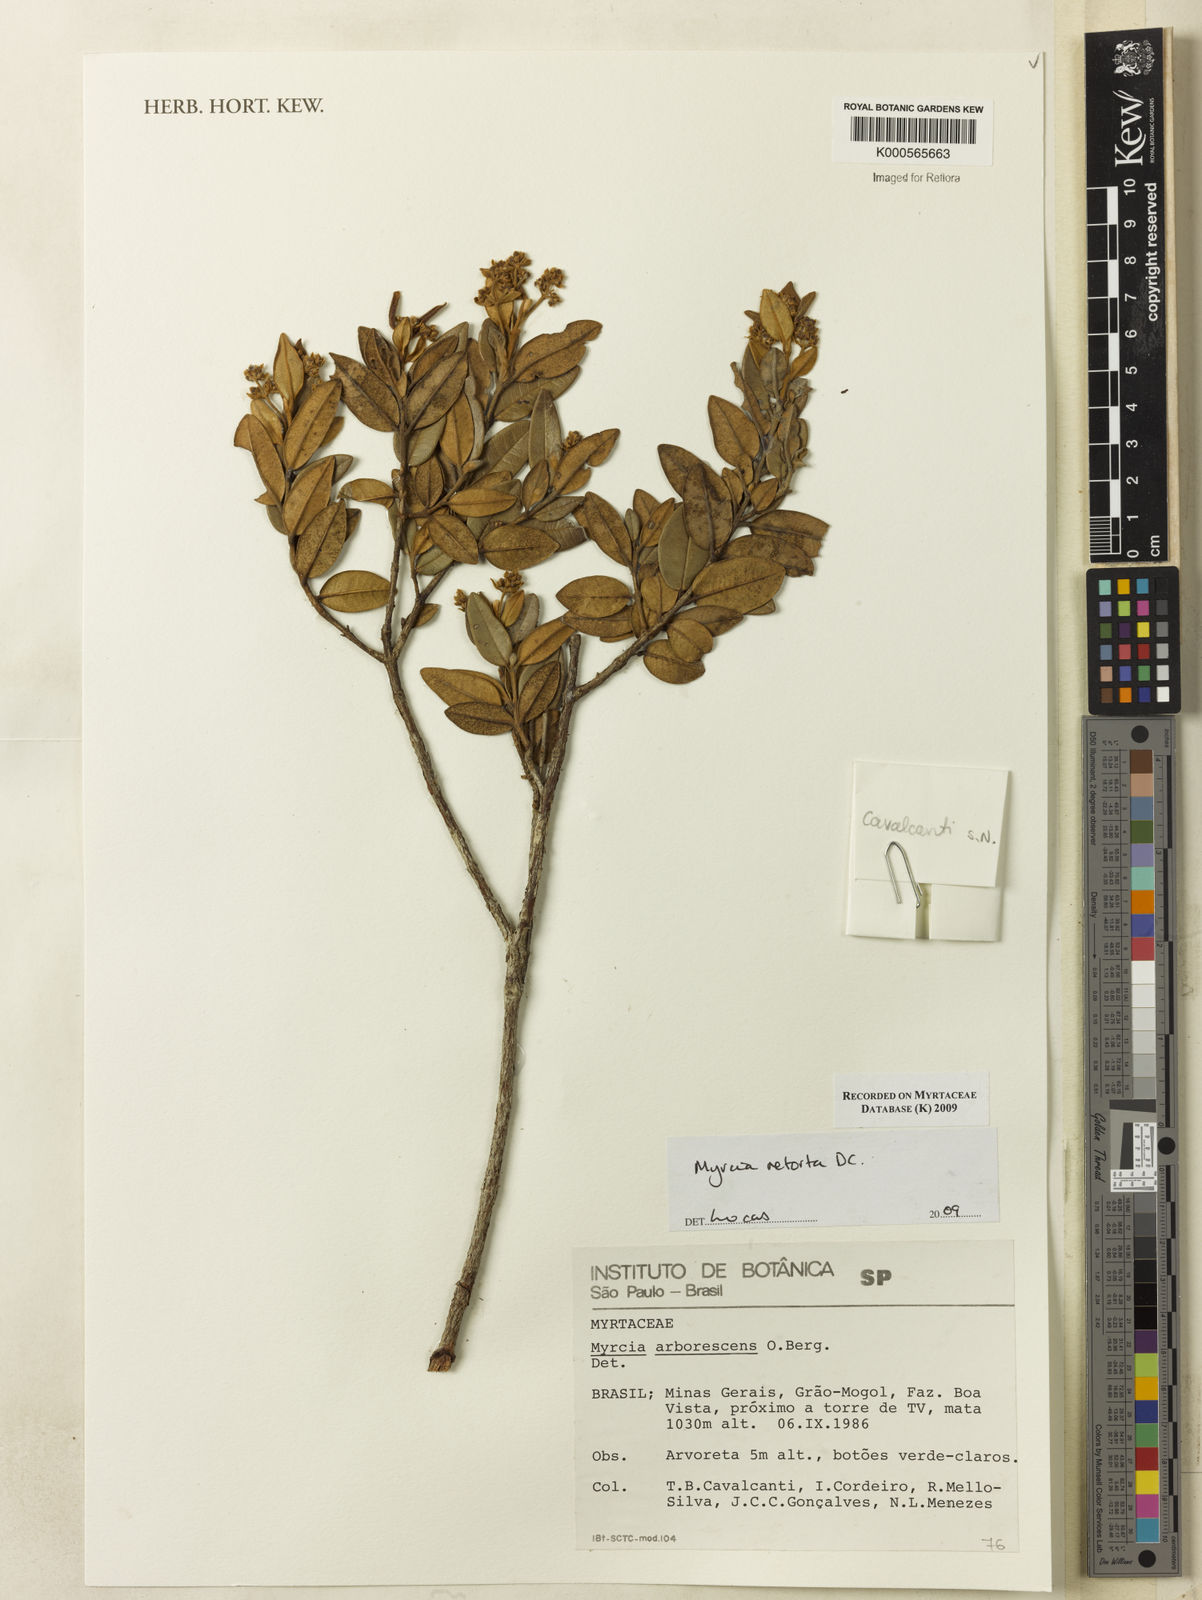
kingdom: Plantae
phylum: Tracheophyta
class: Magnoliopsida
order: Myrtales
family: Myrtaceae
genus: Myrcia
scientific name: Myrcia retorta
